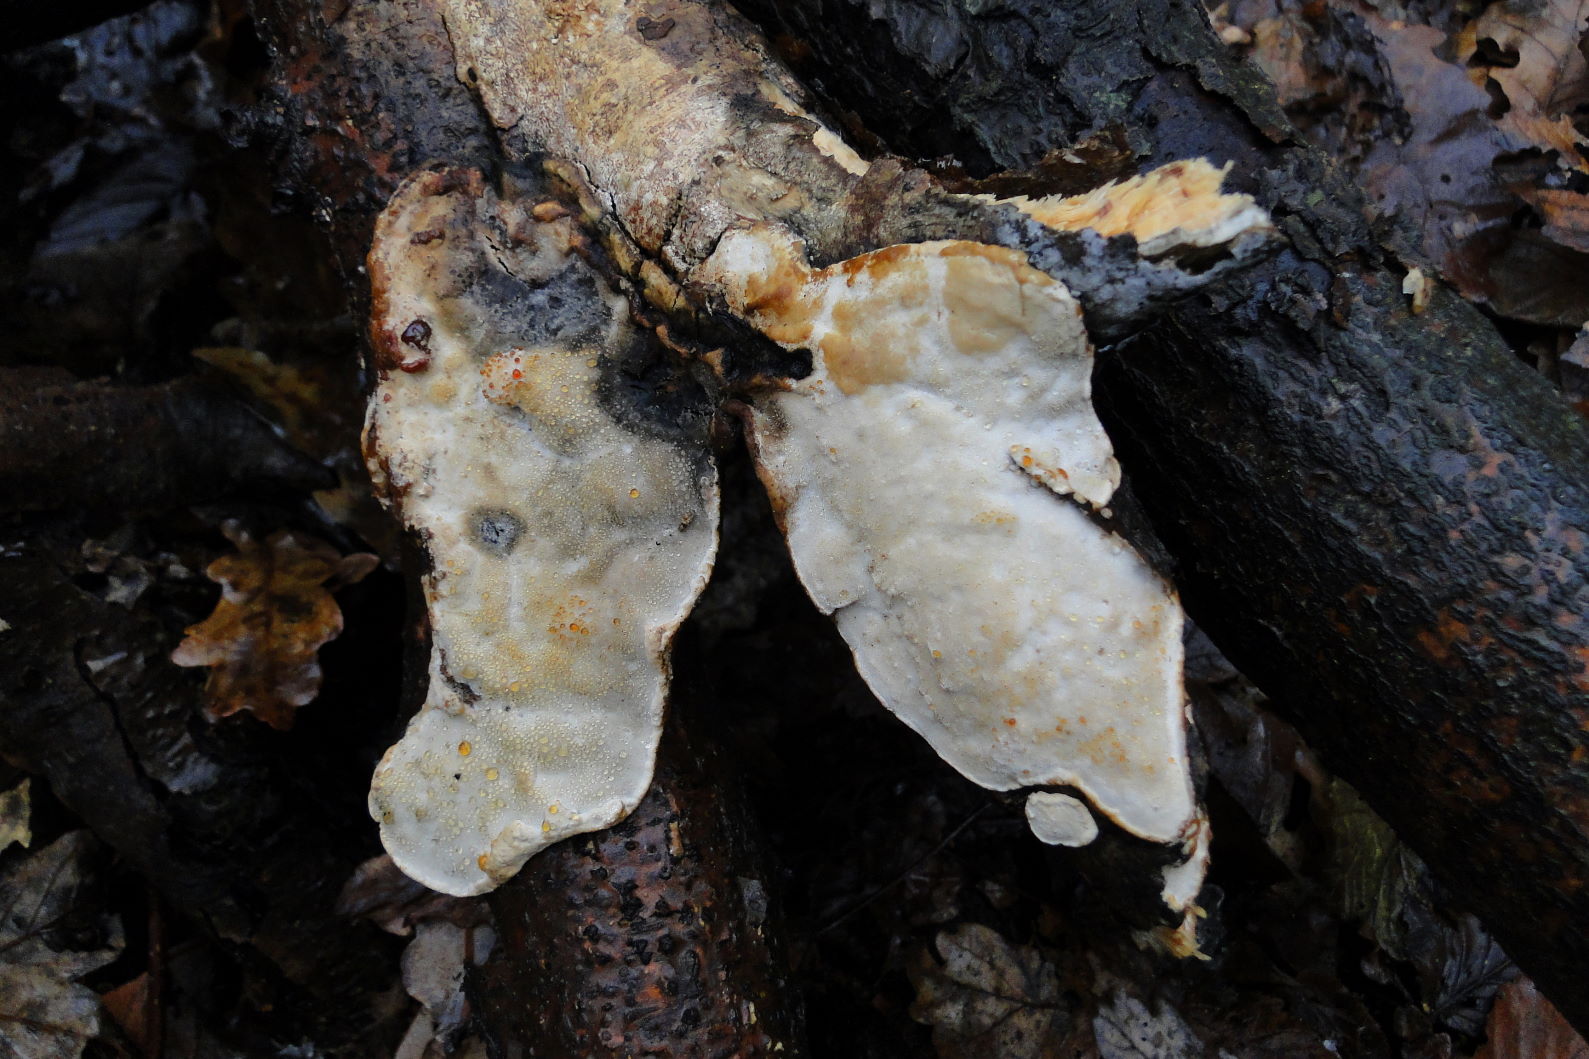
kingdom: Fungi
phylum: Basidiomycota
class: Agaricomycetes
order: Polyporales
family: Incrustoporiaceae
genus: Skeletocutis
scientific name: Skeletocutis nemoralis
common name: stor krystalporesvamp
